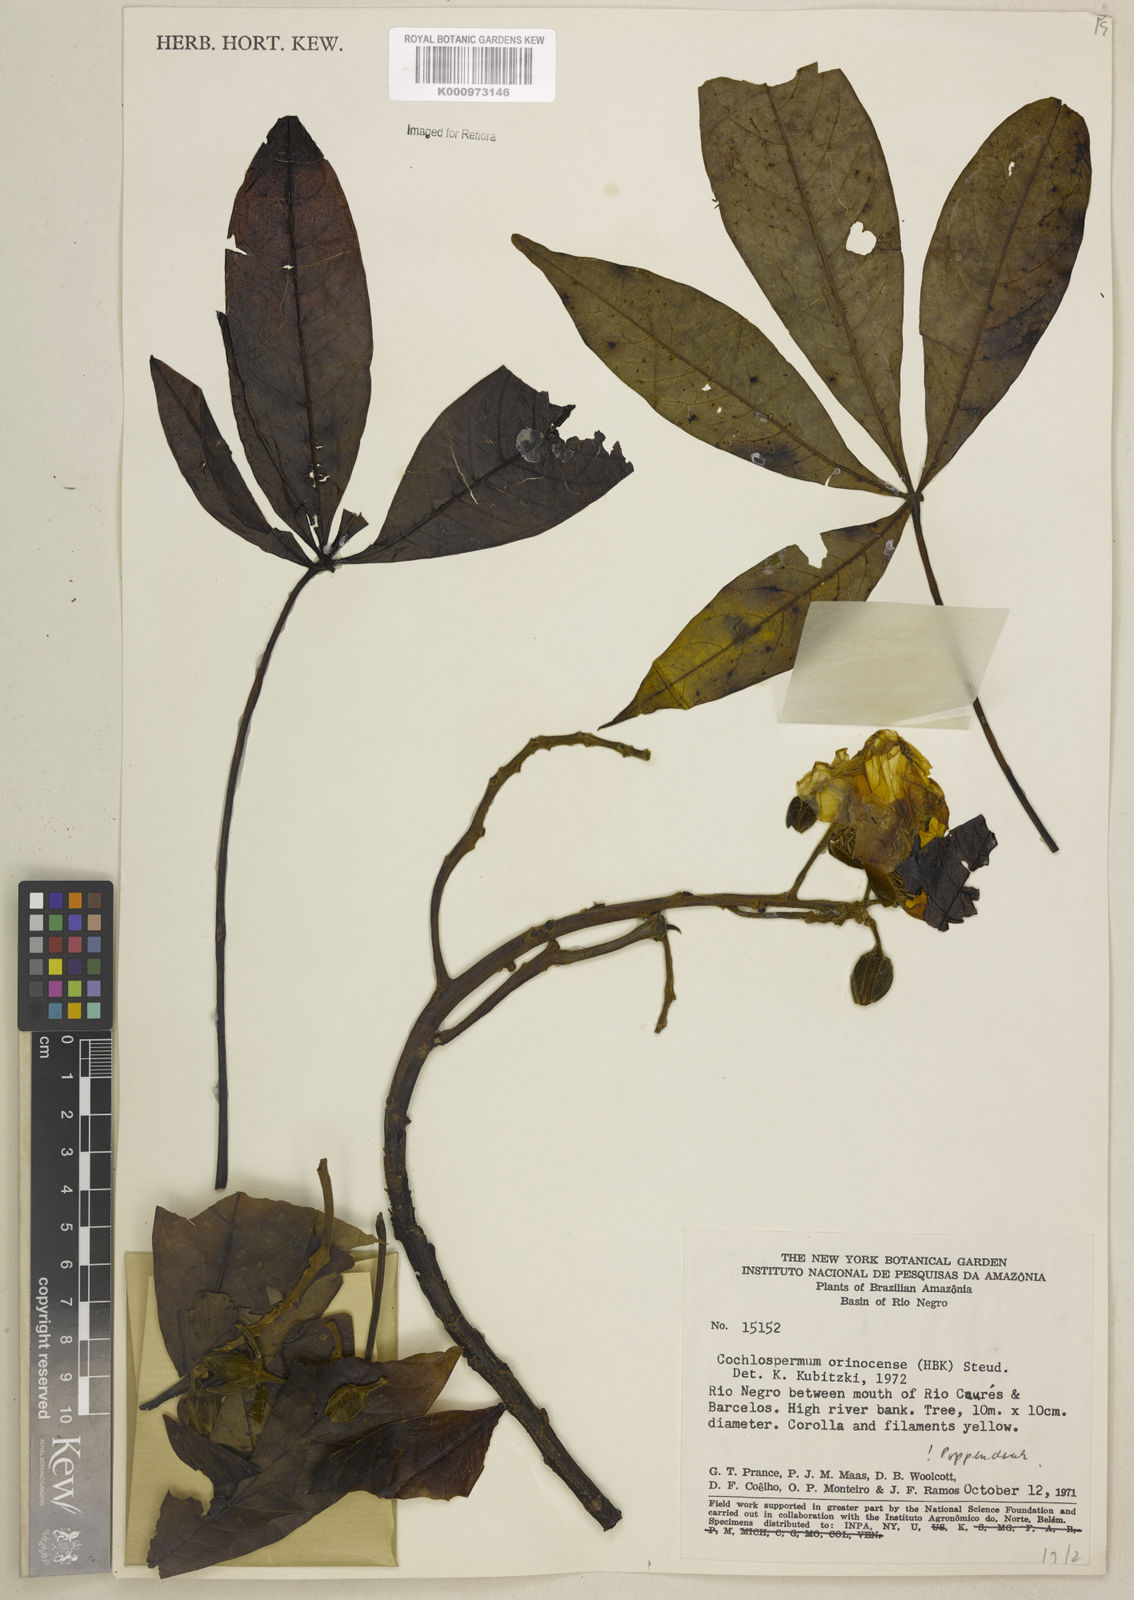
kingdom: Plantae
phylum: Tracheophyta
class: Magnoliopsida
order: Malvales
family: Cochlospermaceae
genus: Cochlospermum
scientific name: Cochlospermum orinocense
